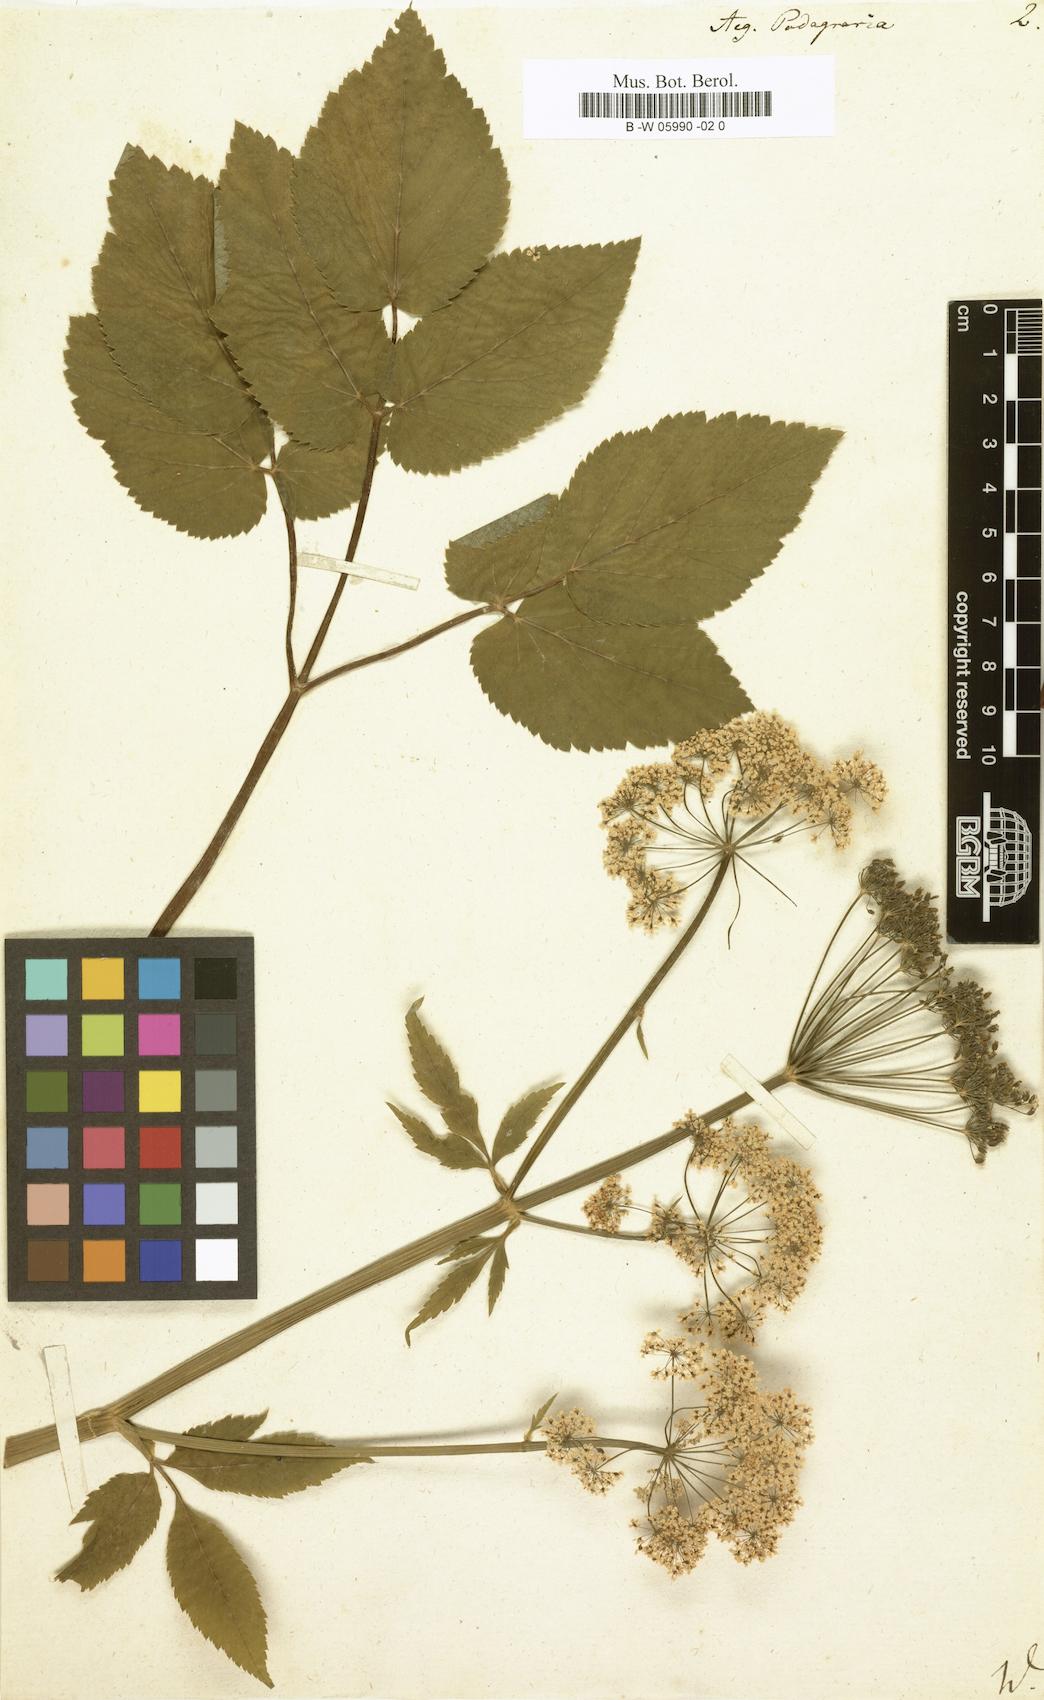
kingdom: Plantae
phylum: Tracheophyta
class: Magnoliopsida
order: Apiales
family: Apiaceae
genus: Aegopodium
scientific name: Aegopodium podagraria
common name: Ground-elder
